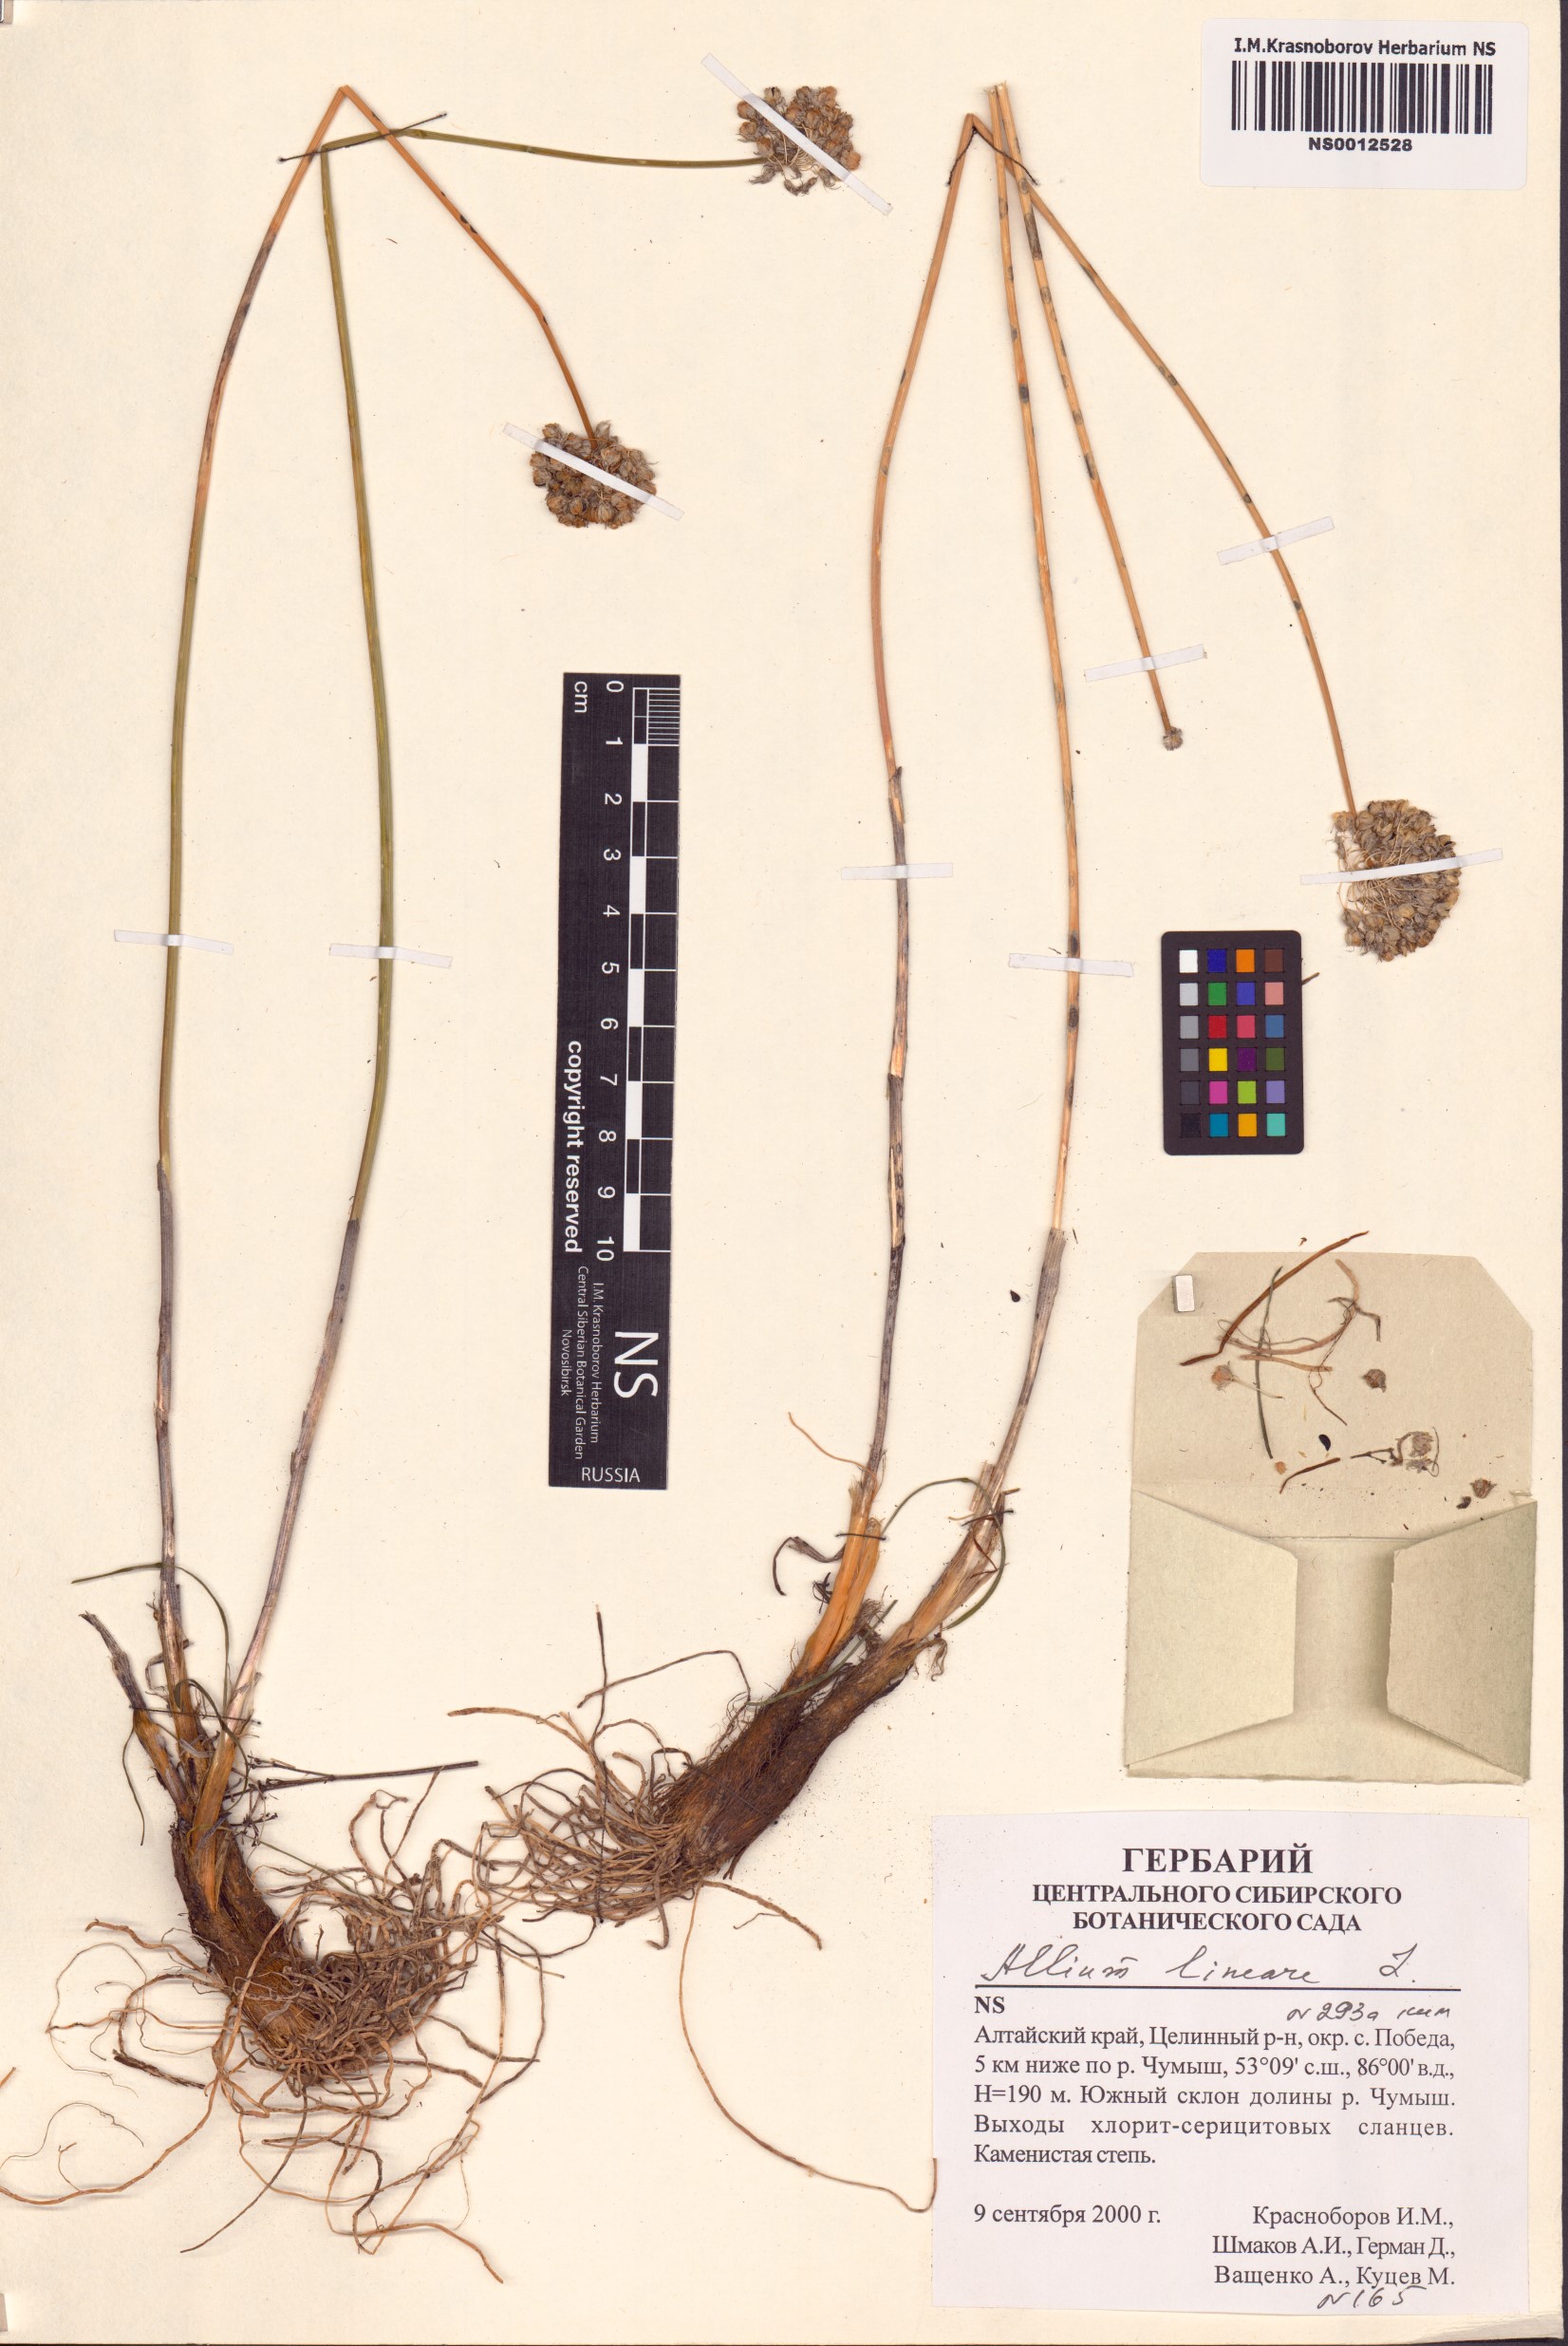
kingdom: Plantae
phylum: Tracheophyta
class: Liliopsida
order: Asparagales
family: Amaryllidaceae
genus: Allium
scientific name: Allium lineare
